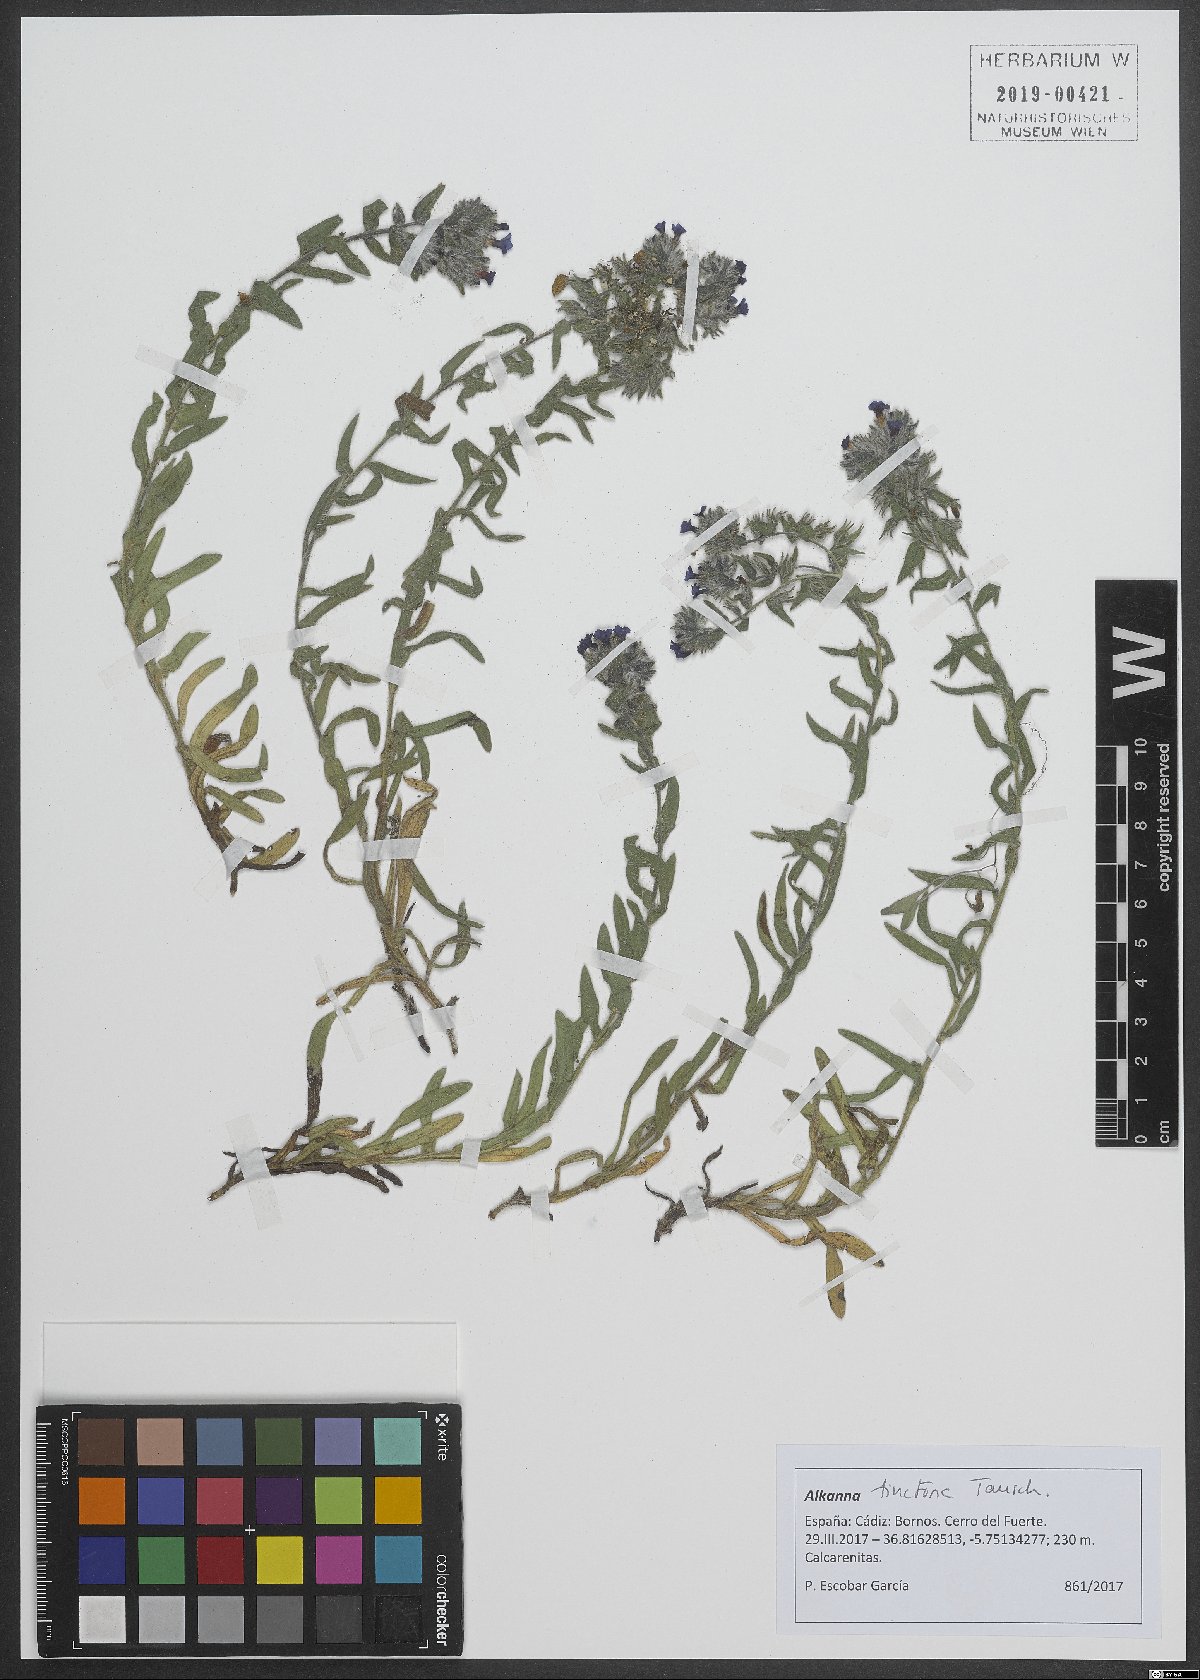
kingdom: Plantae
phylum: Tracheophyta
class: Magnoliopsida
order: Boraginales
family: Boraginaceae
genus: Alkanna
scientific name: Alkanna tinctoria
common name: Dyer's-alkanet
